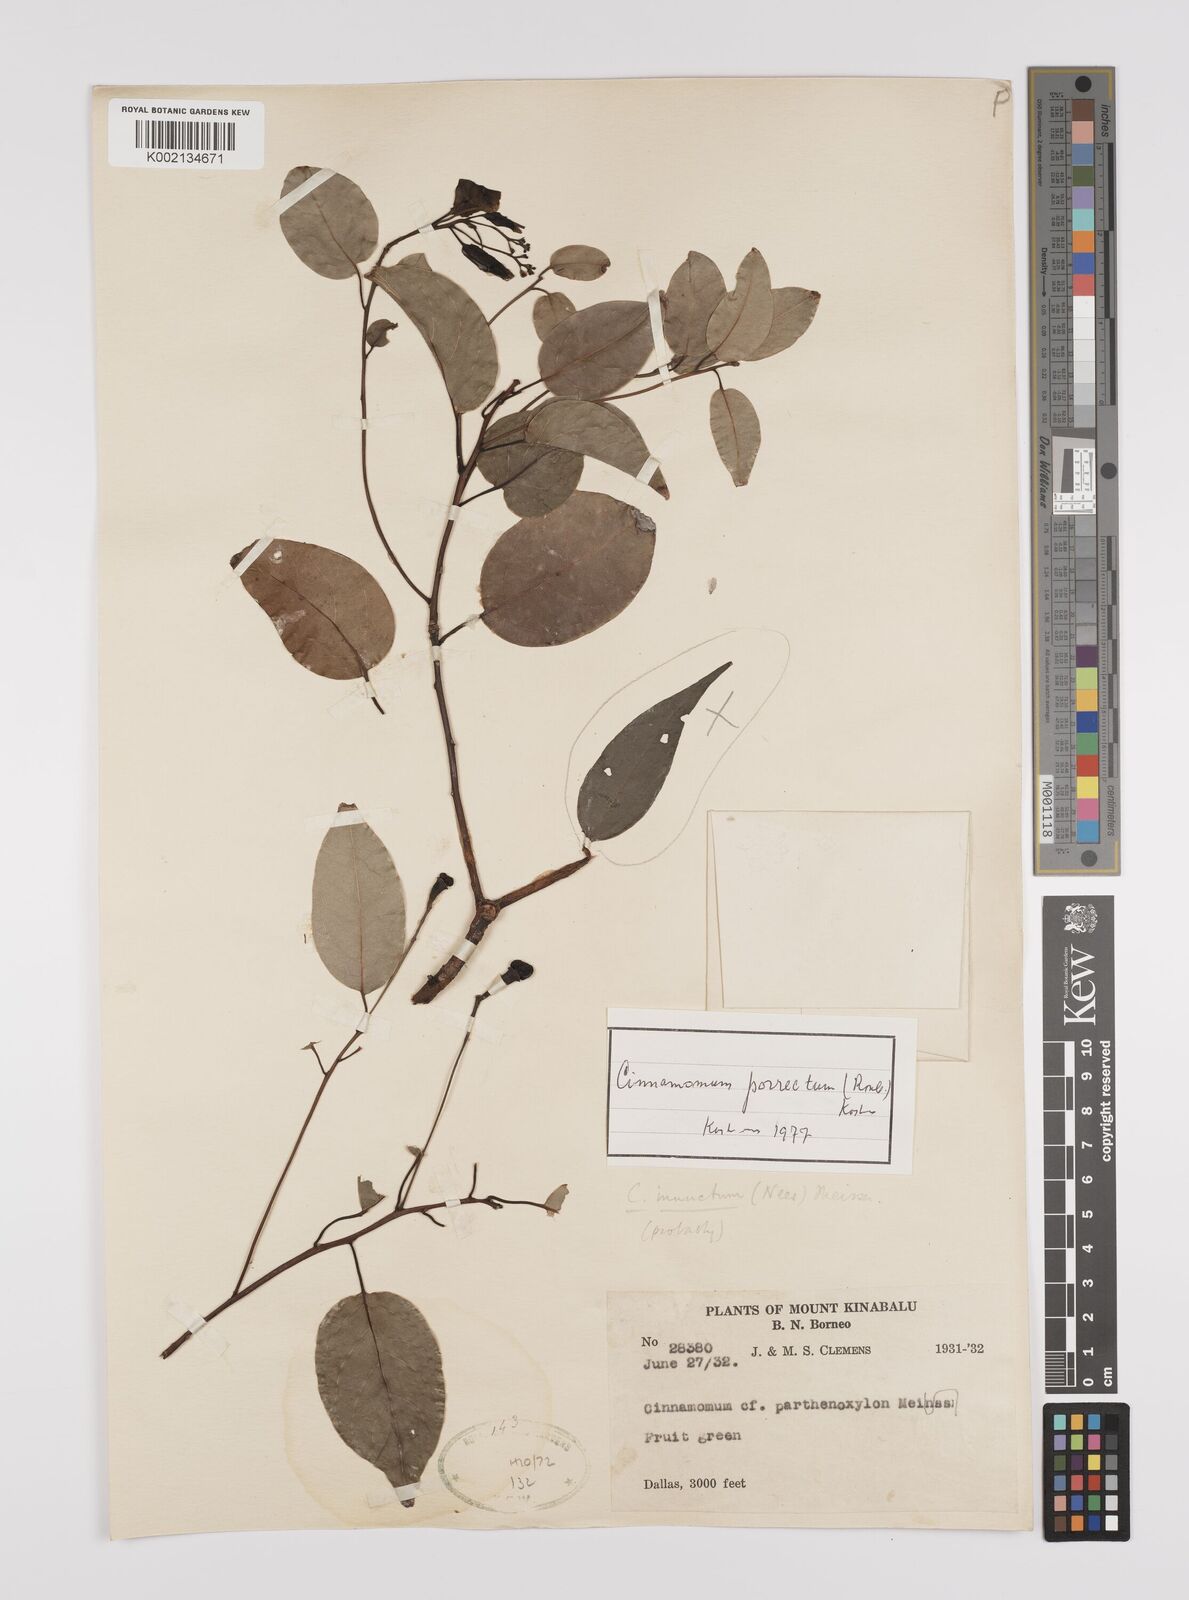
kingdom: Plantae
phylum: Tracheophyta
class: Magnoliopsida
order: Laurales
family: Lauraceae
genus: Cinnamomum
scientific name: Cinnamomum parthenoxylon
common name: Martaban camphor wood
